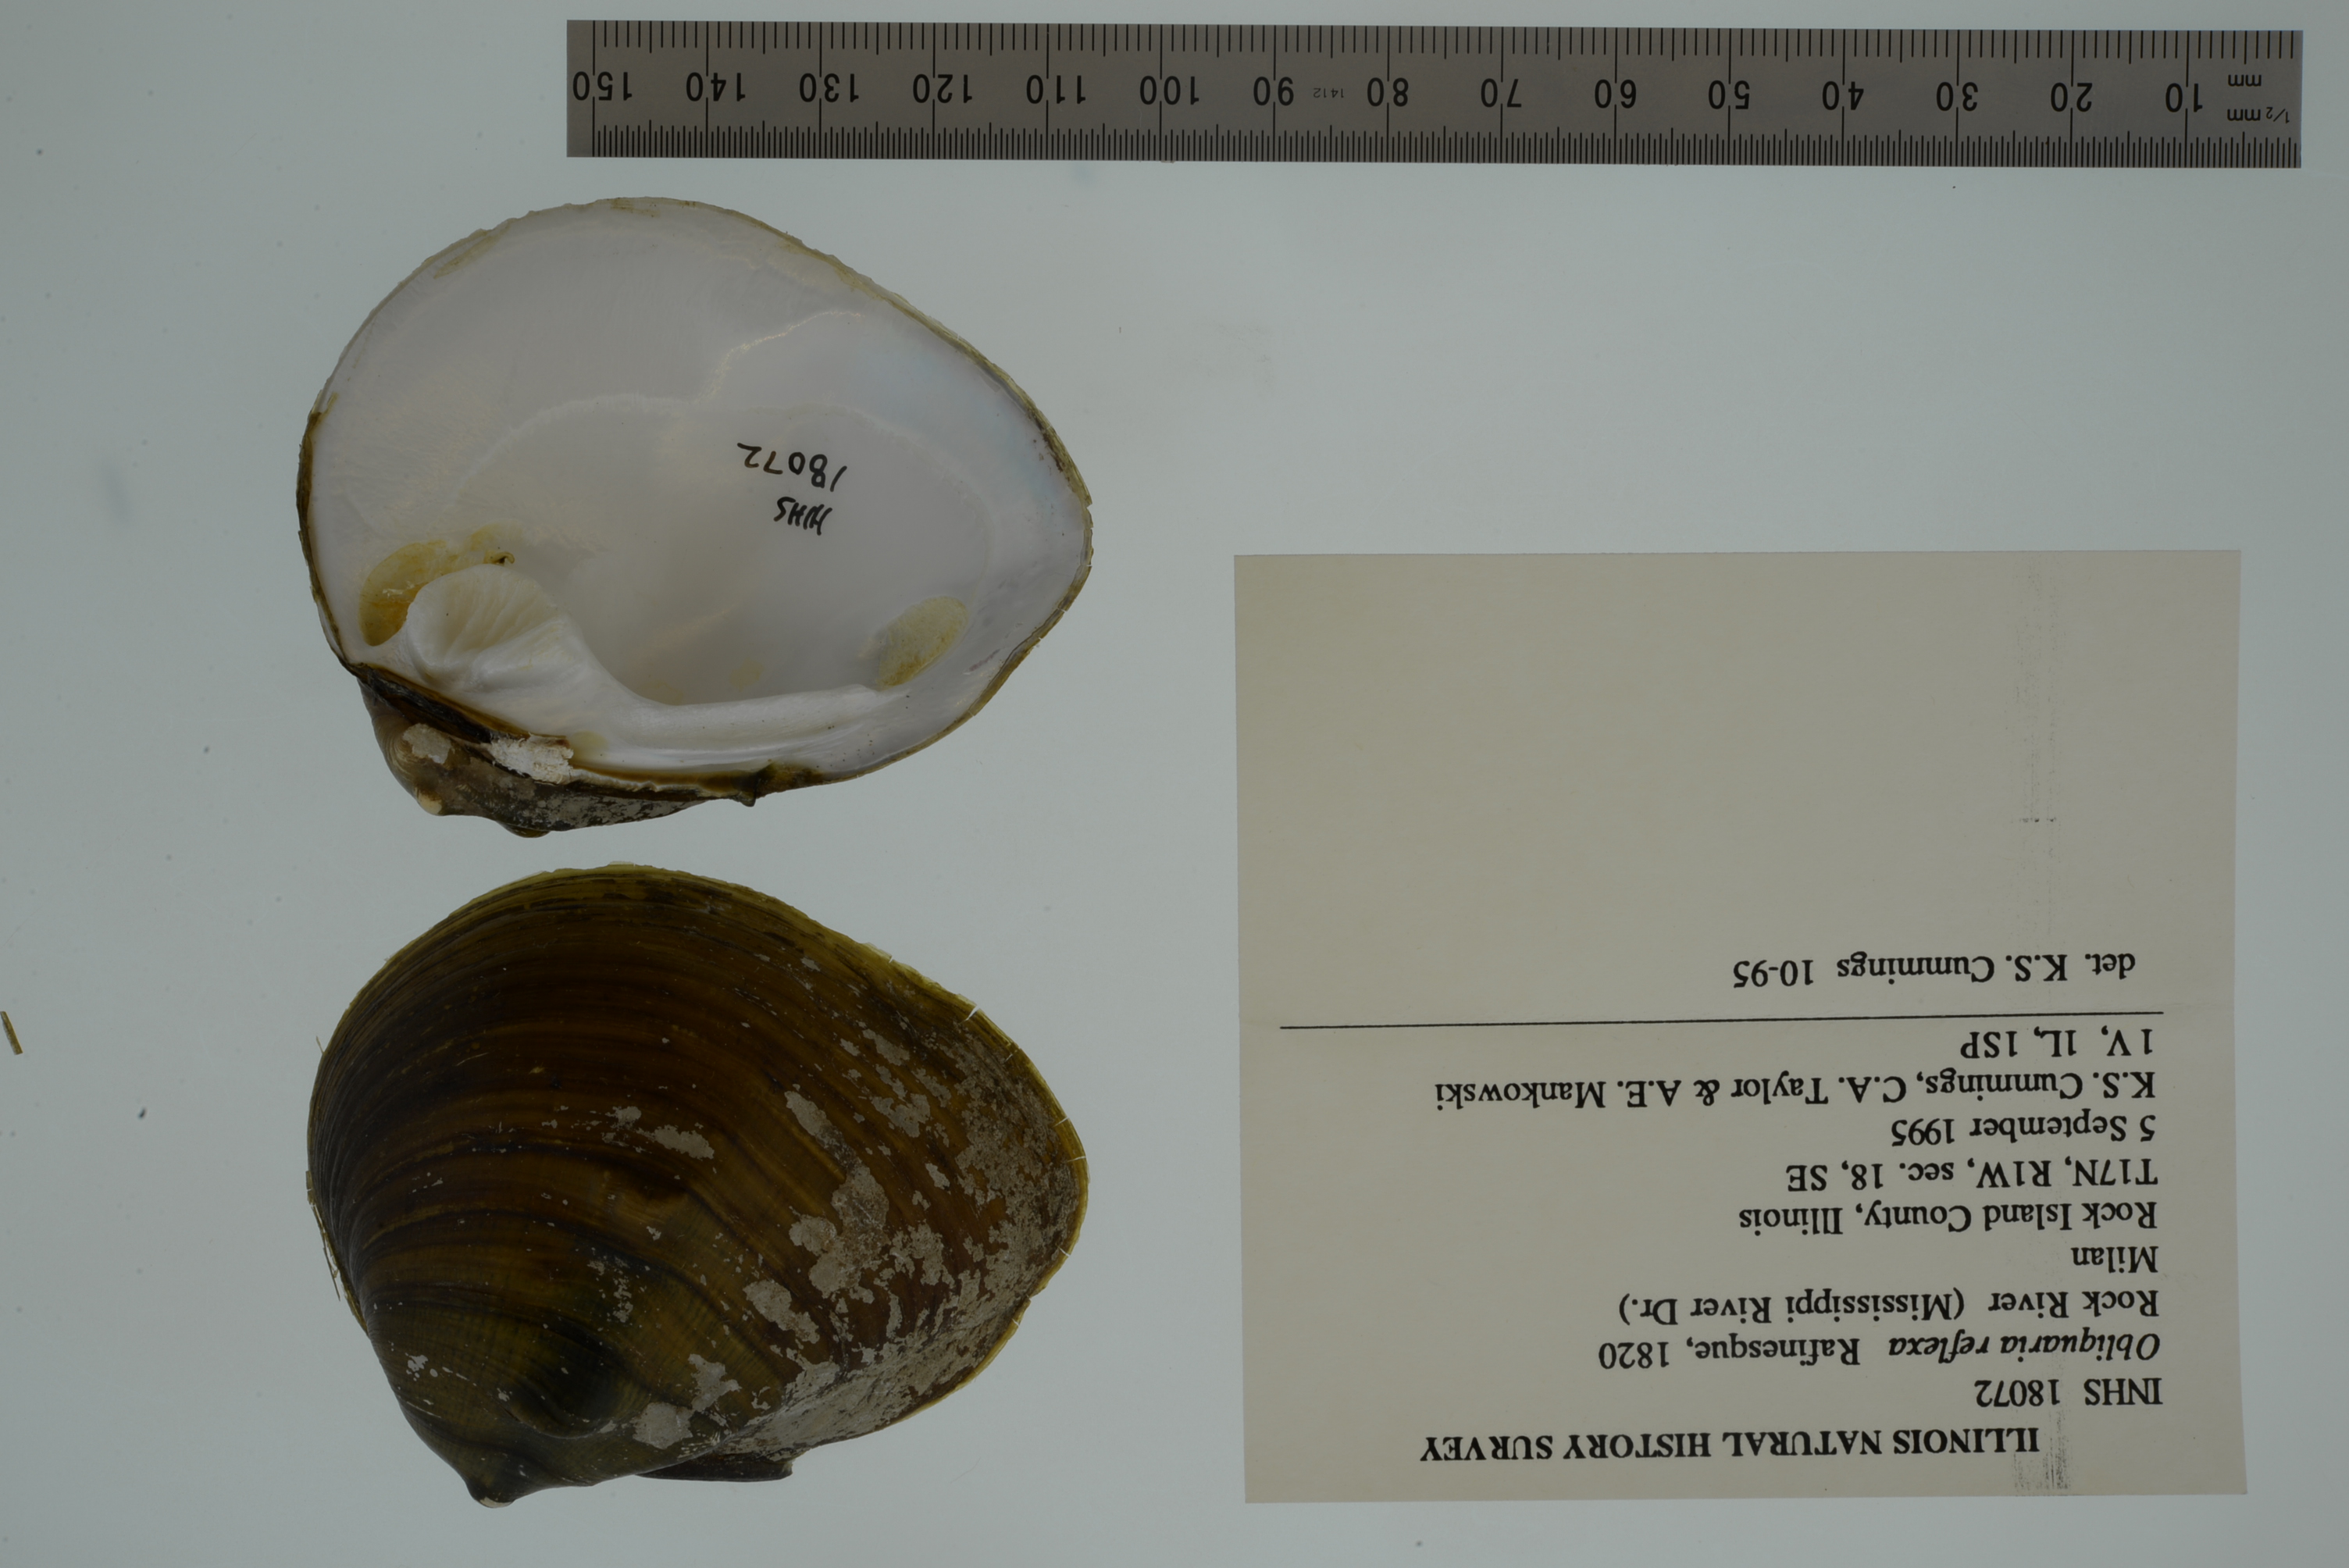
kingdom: Animalia
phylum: Mollusca
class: Bivalvia
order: Unionida
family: Unionidae
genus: Obliquaria
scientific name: Obliquaria reflexa
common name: Threehorn wartyback
